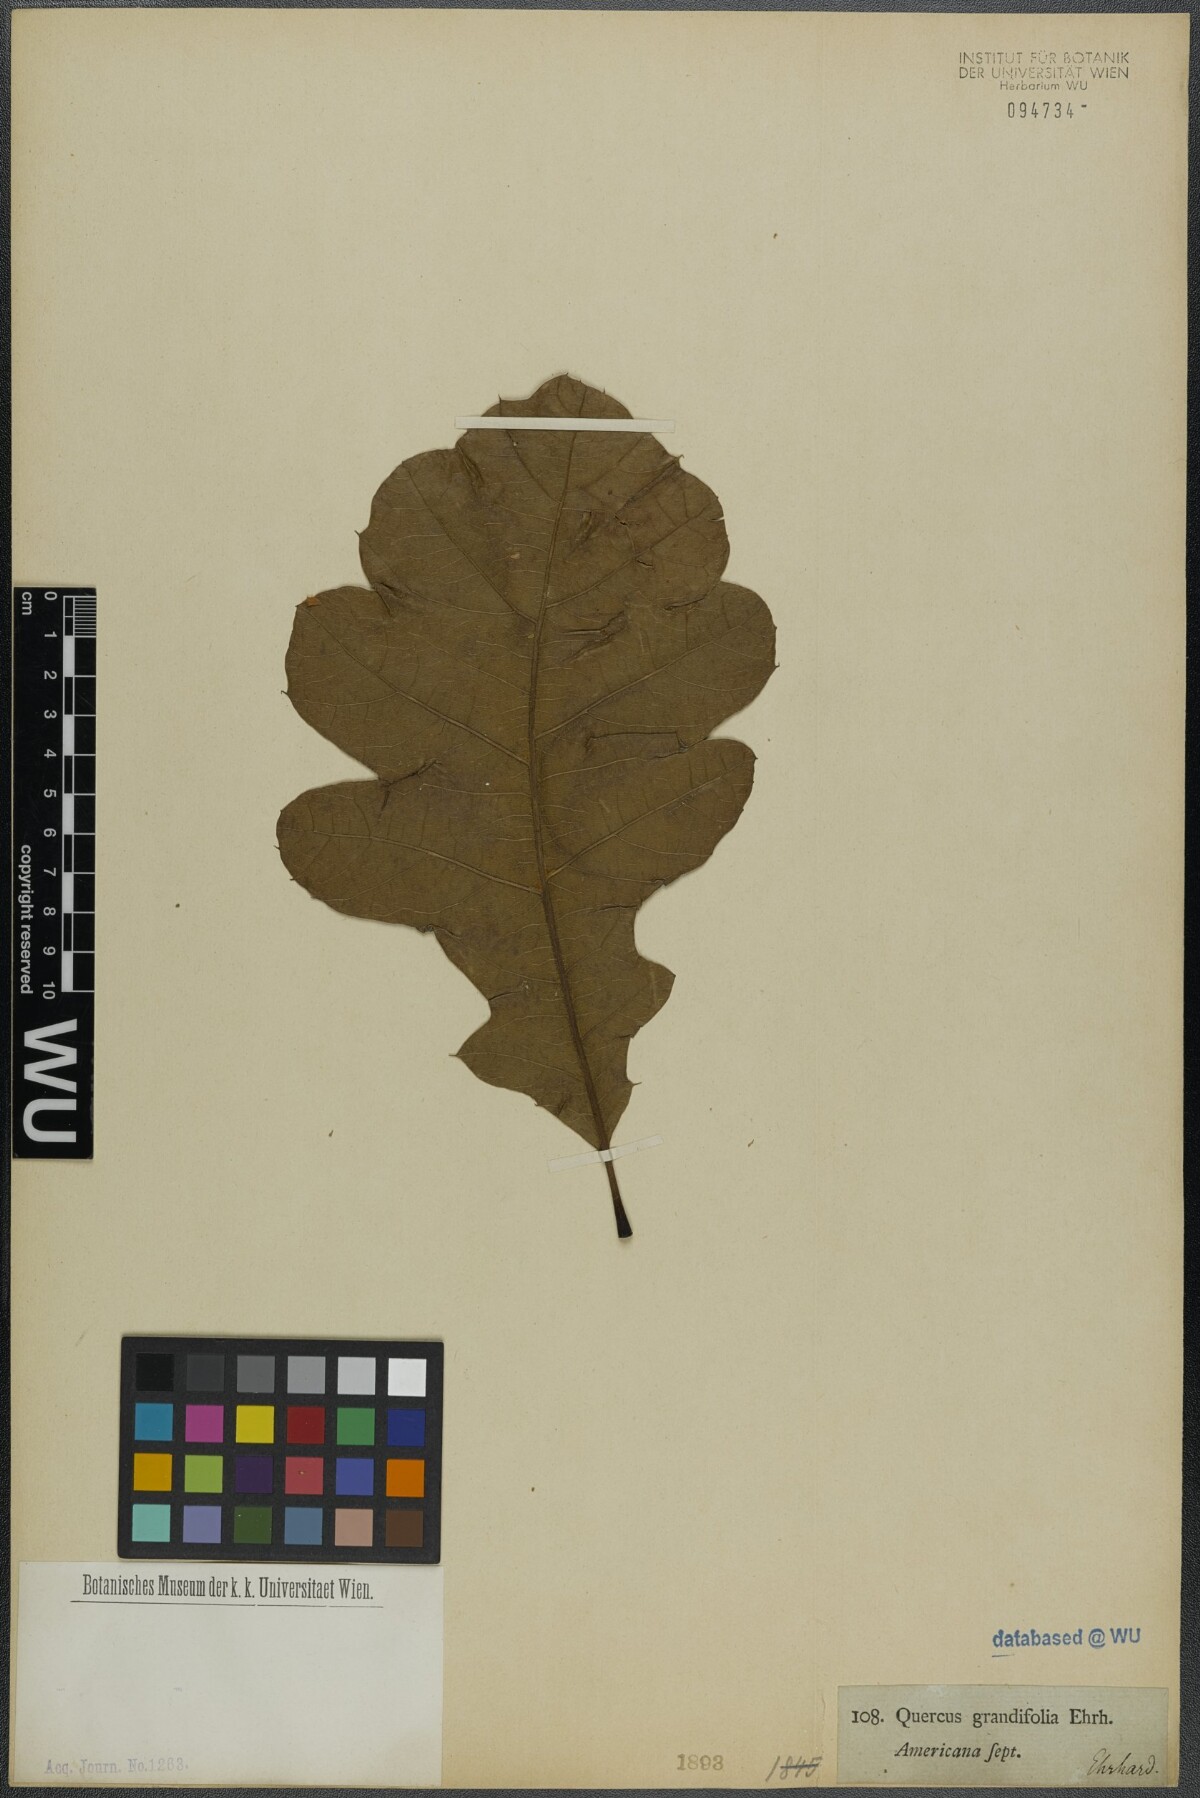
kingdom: Plantae
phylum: Tracheophyta
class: Magnoliopsida
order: Fagales
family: Fagaceae
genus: Quercus
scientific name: Quercus marilandica
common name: Blackjack oak
